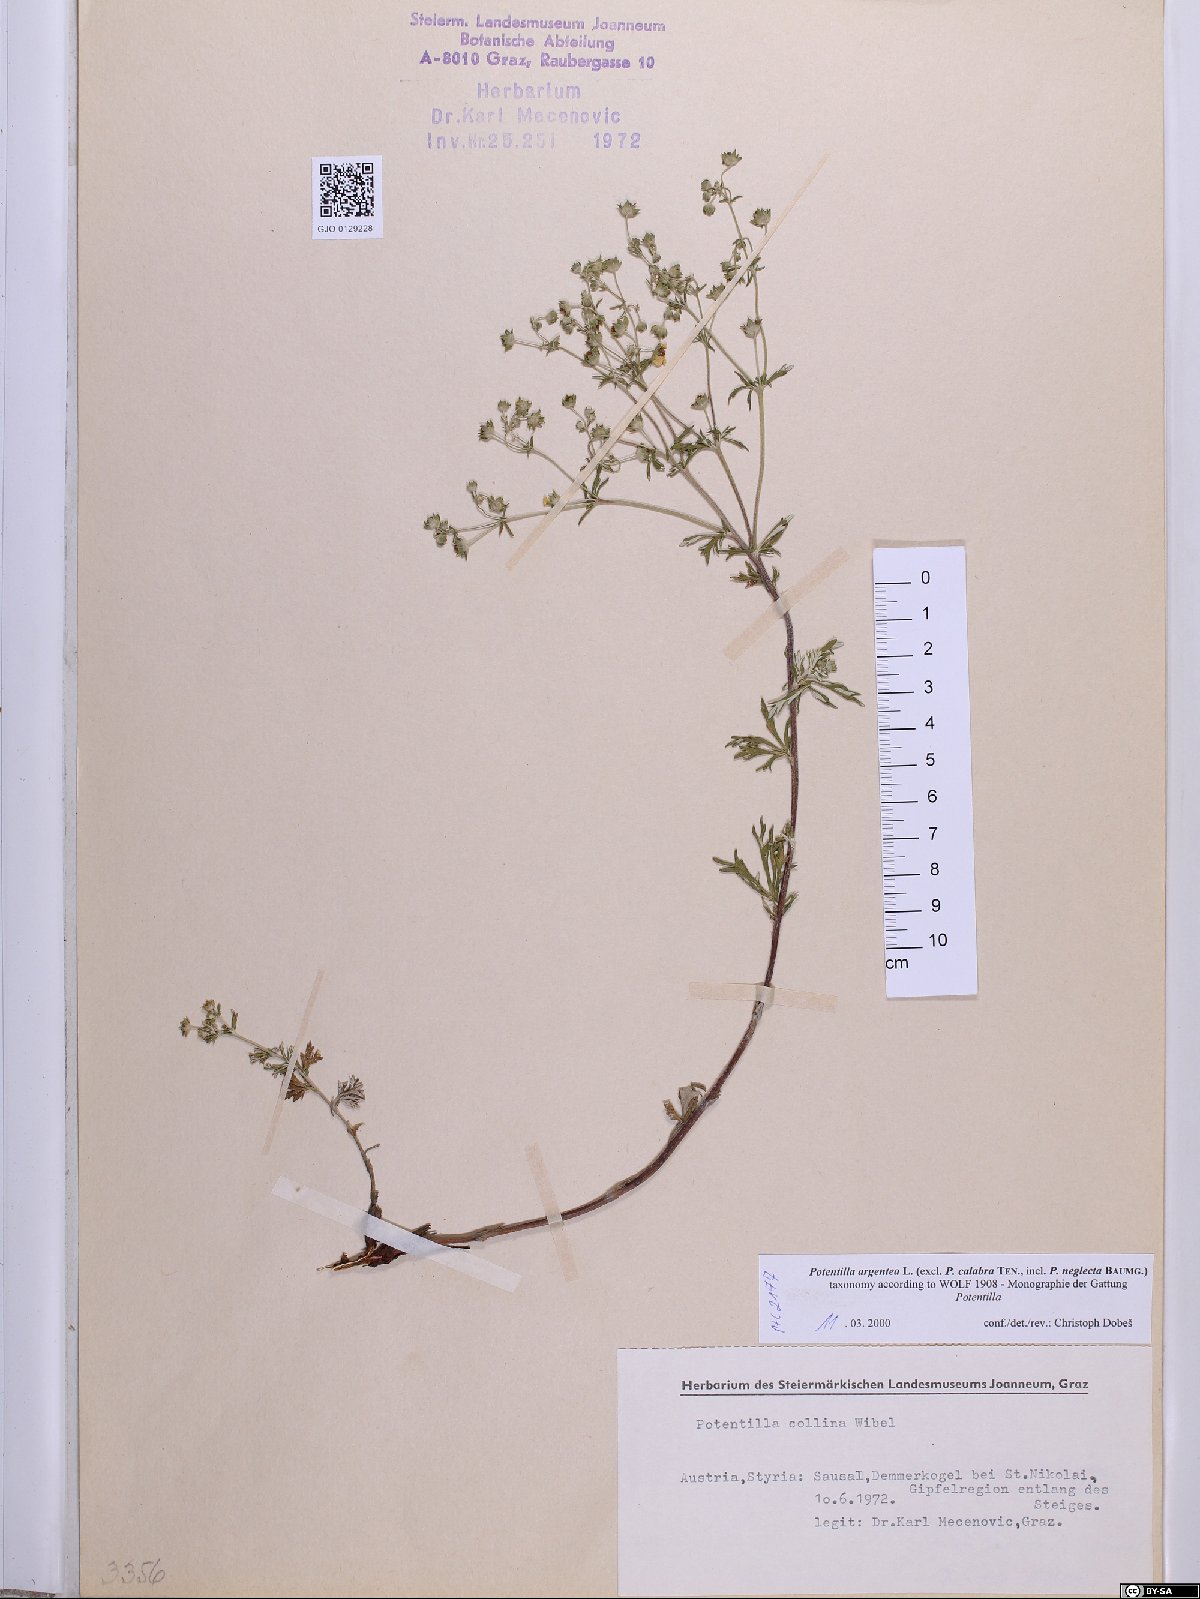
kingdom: Plantae
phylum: Tracheophyta
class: Magnoliopsida
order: Rosales
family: Rosaceae
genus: Potentilla
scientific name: Potentilla argentea
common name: Hoary cinquefoil
